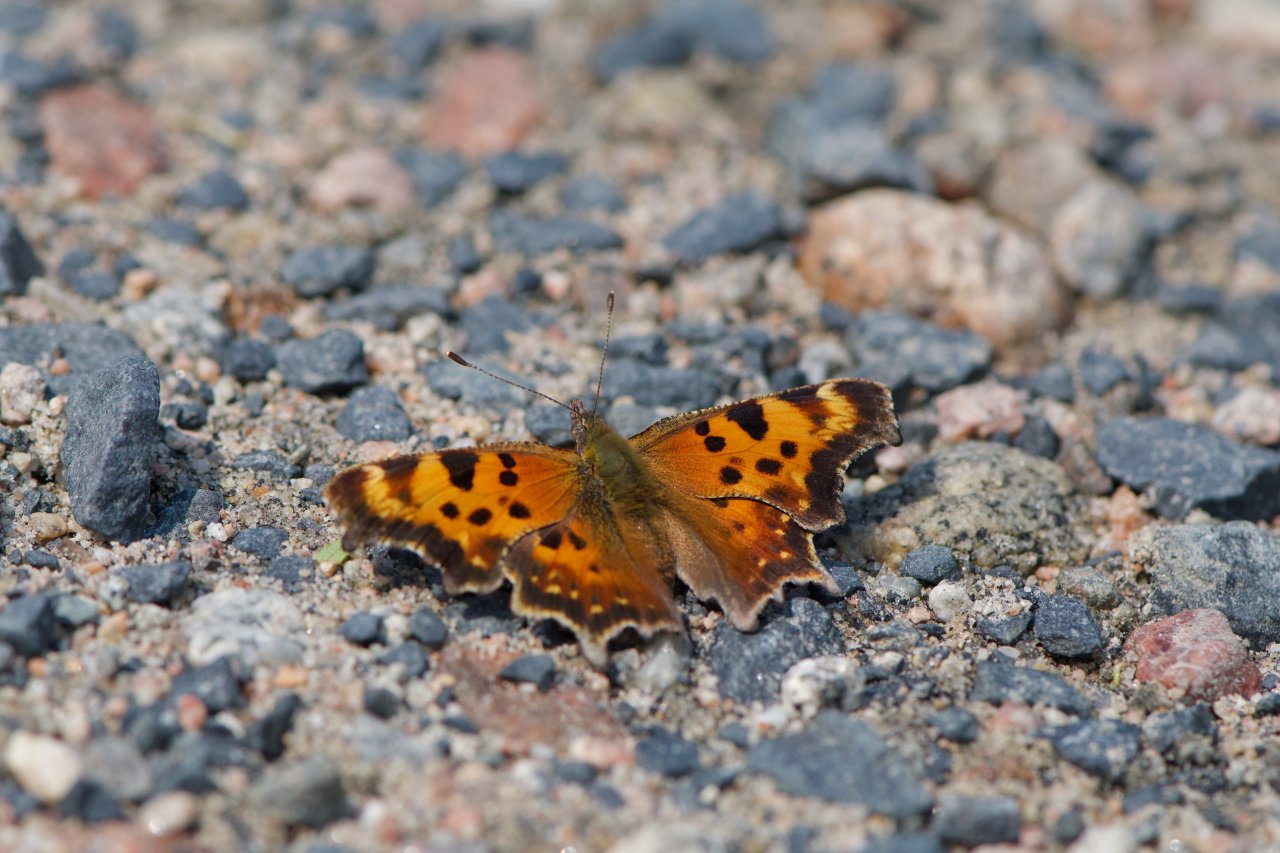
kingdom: Animalia
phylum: Arthropoda
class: Insecta
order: Lepidoptera
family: Nymphalidae
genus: Polygonia
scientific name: Polygonia faunus
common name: Green Comma
